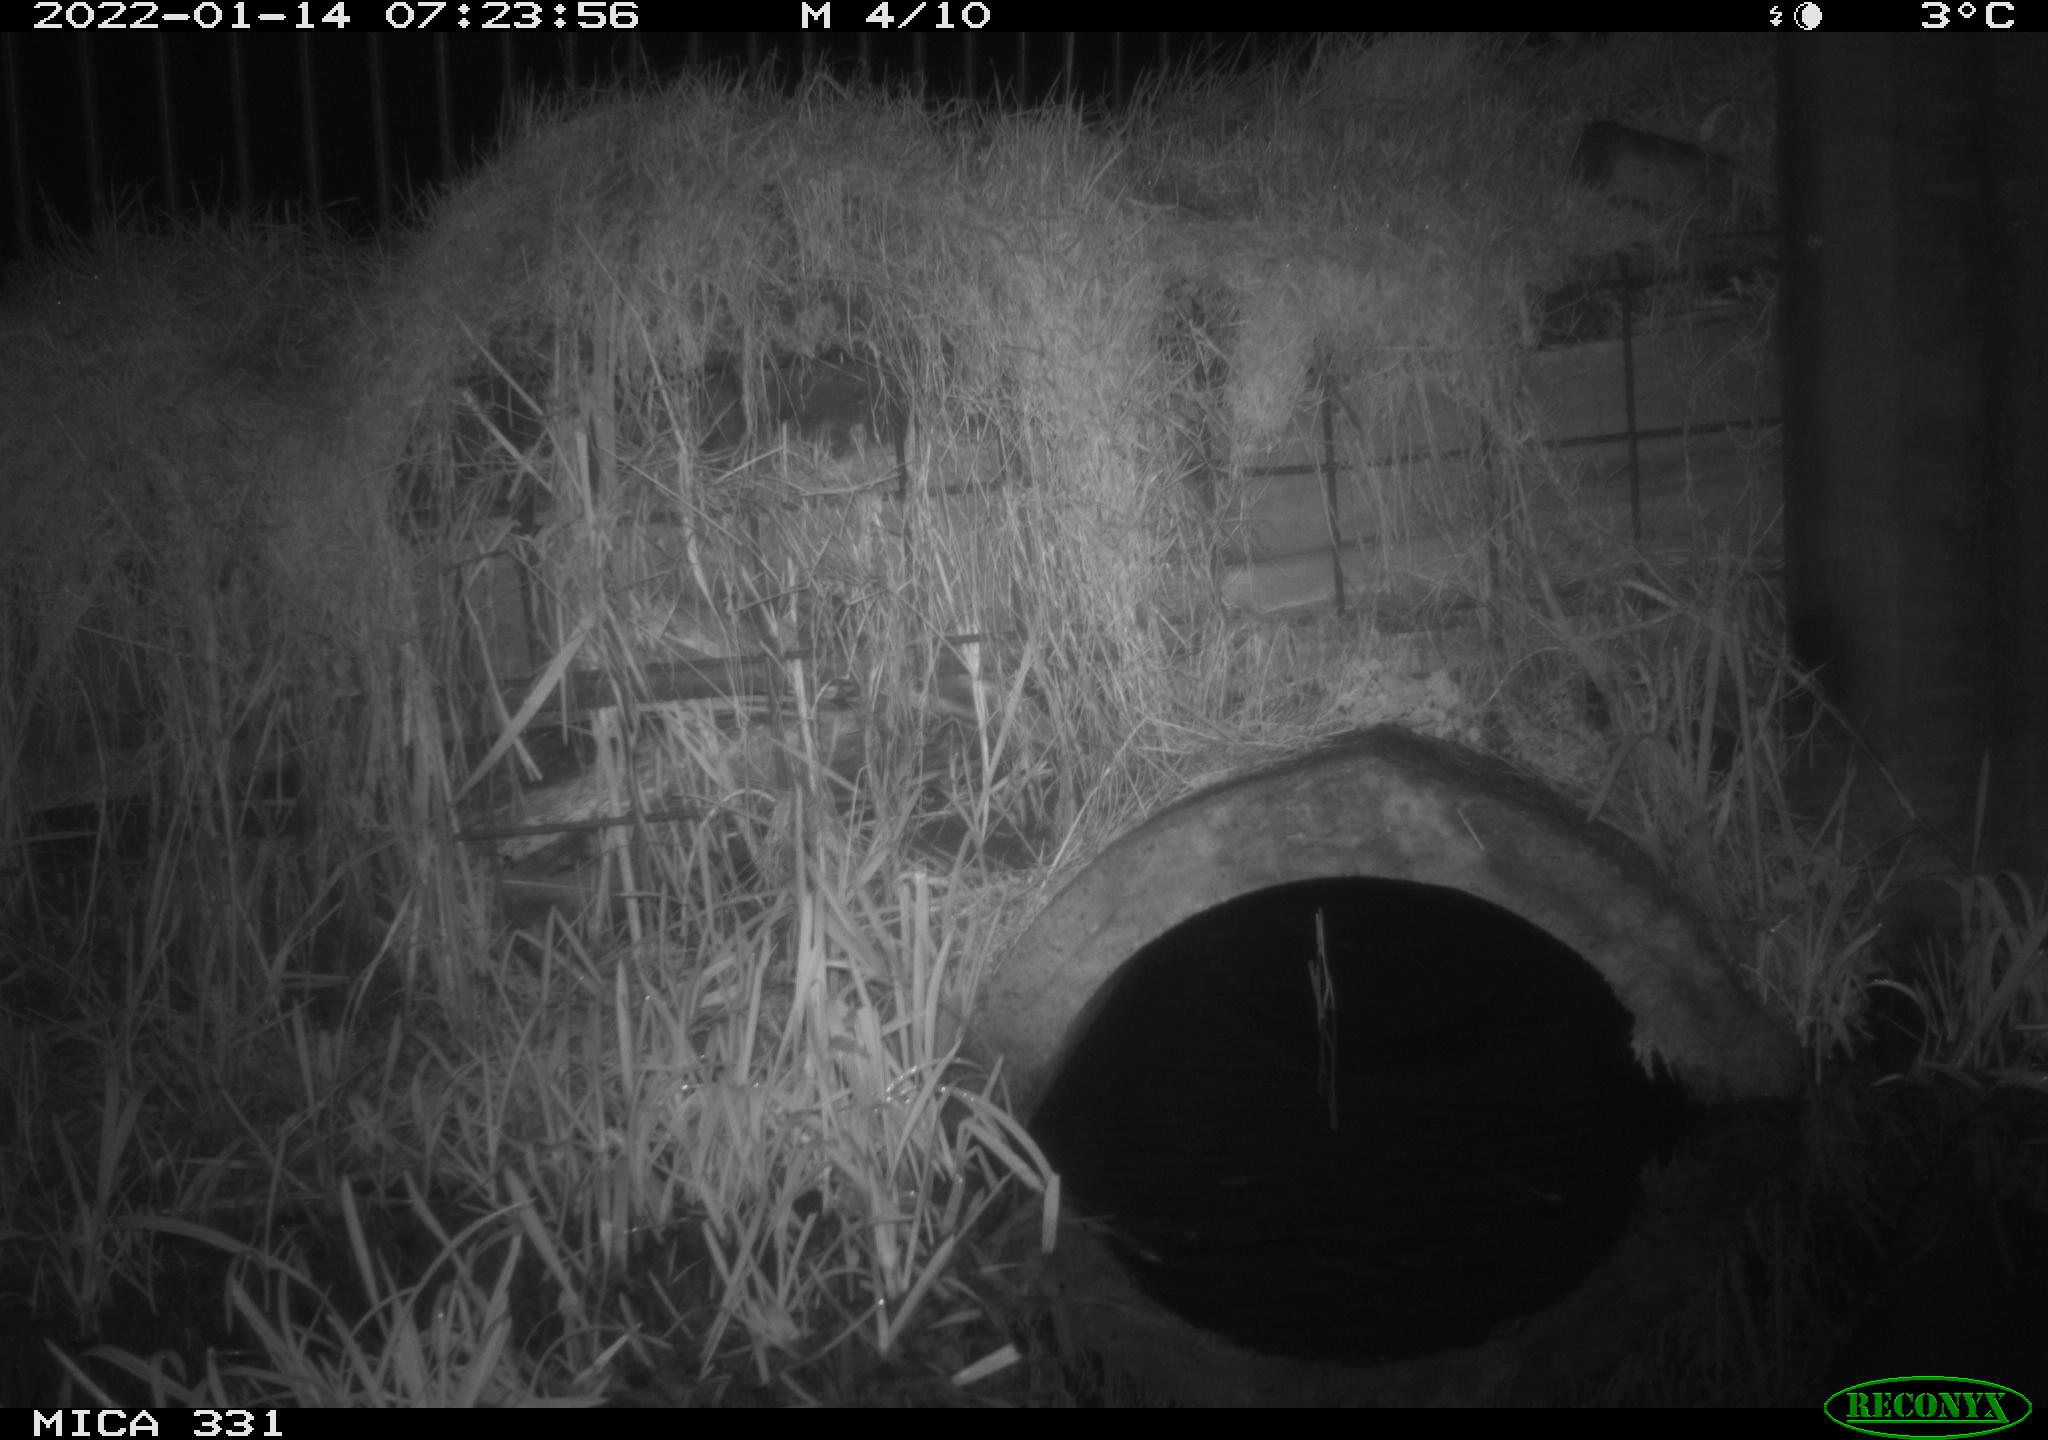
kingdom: Animalia
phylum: Chordata
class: Mammalia
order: Rodentia
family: Muridae
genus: Rattus
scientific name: Rattus norvegicus
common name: Brown rat
